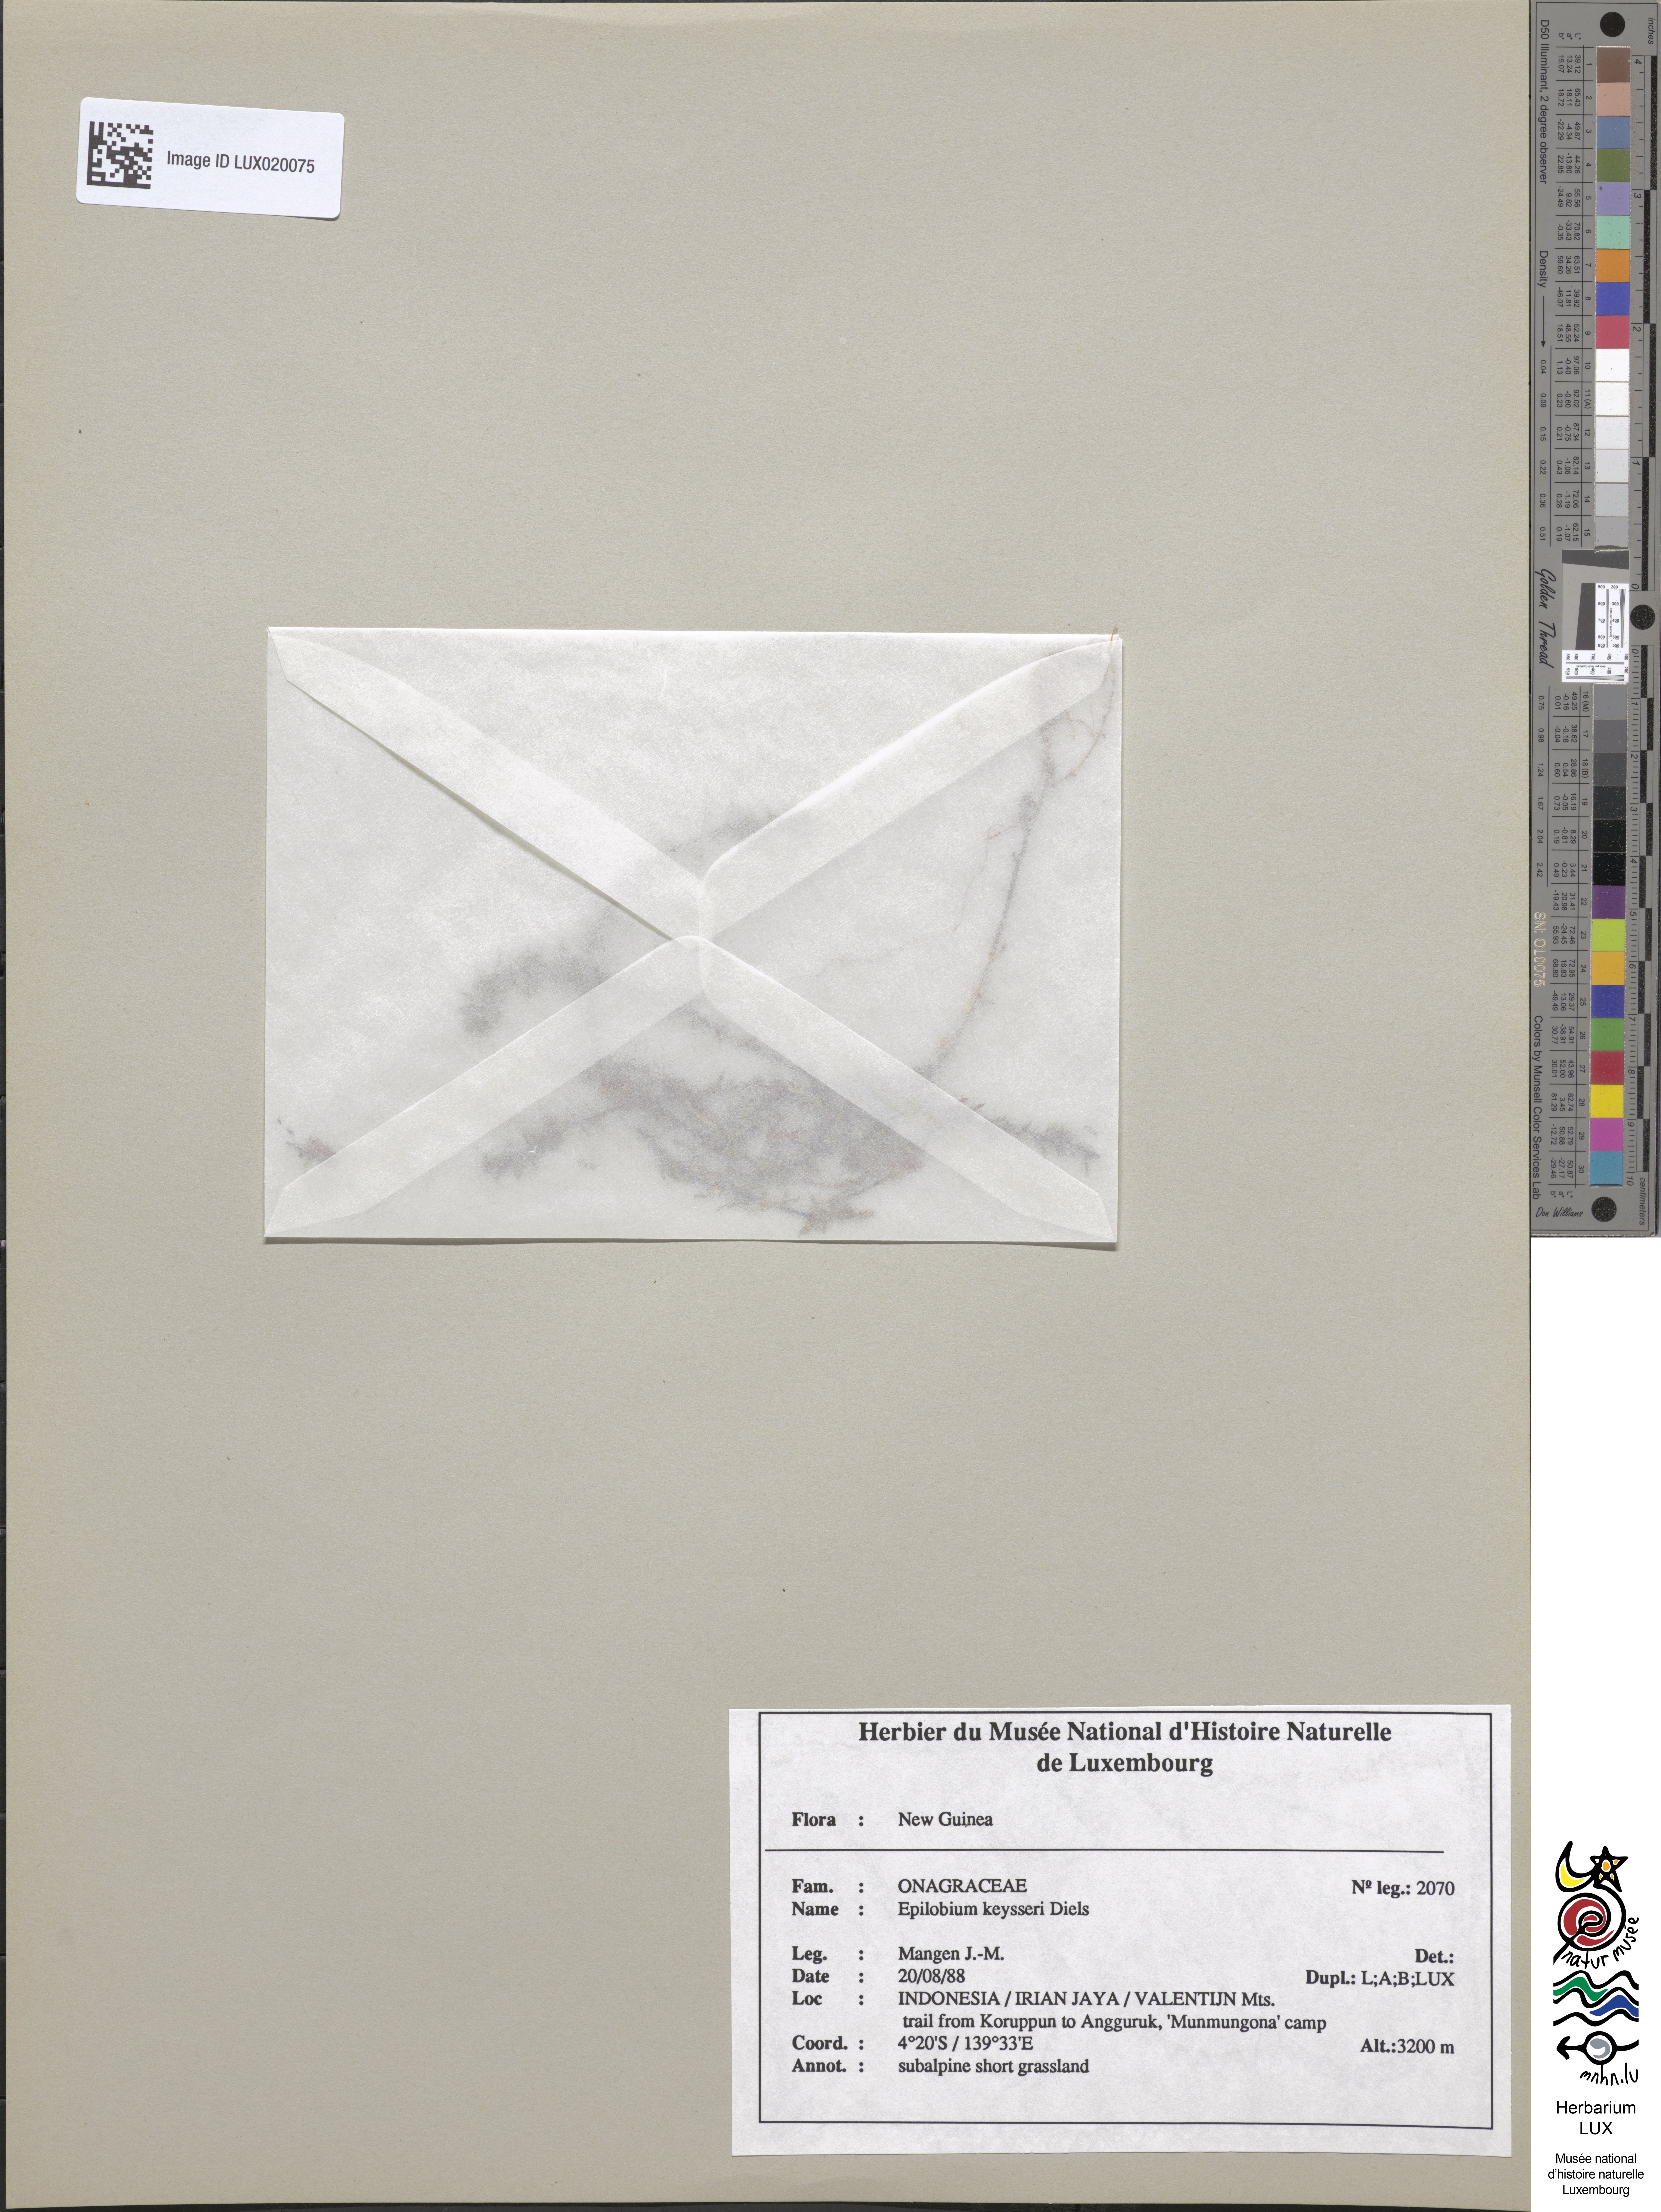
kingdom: Plantae
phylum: Tracheophyta
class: Magnoliopsida
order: Myrtales
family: Onagraceae
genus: Epilobium
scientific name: Epilobium keysseri
